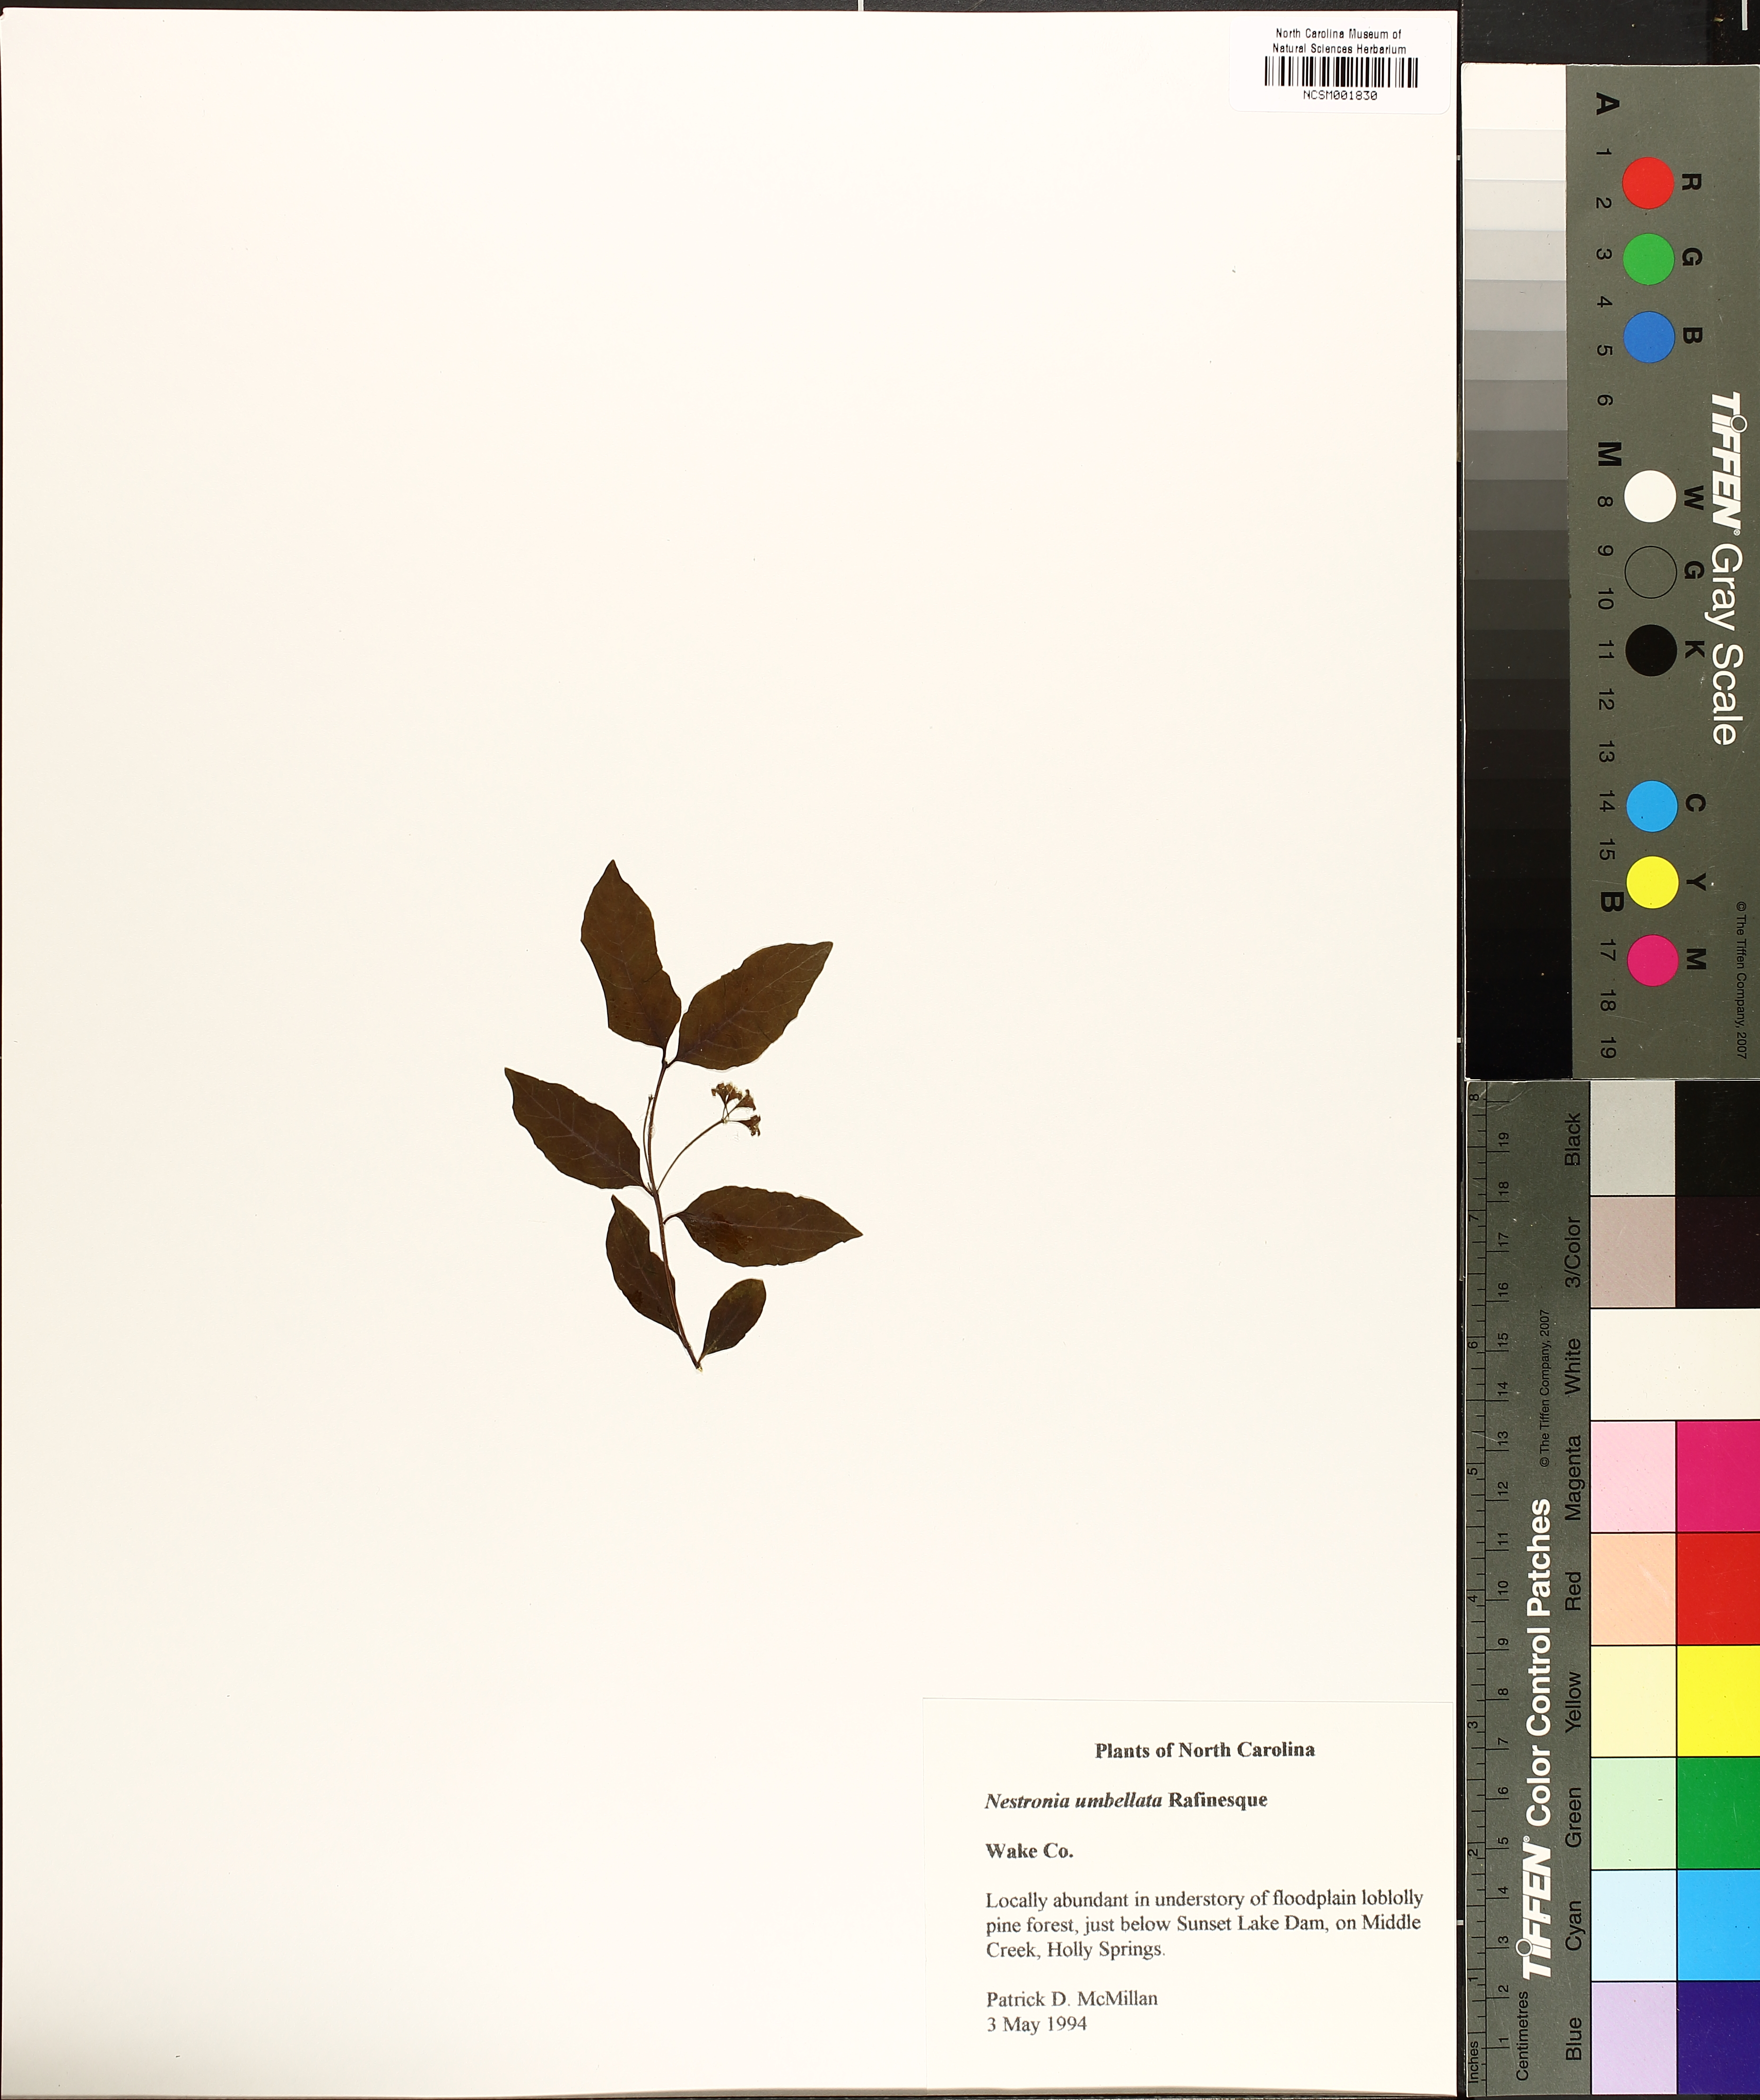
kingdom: Plantae
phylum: Tracheophyta
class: Magnoliopsida
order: Santalales
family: Santalaceae
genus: Nestronia
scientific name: Nestronia umbellula
